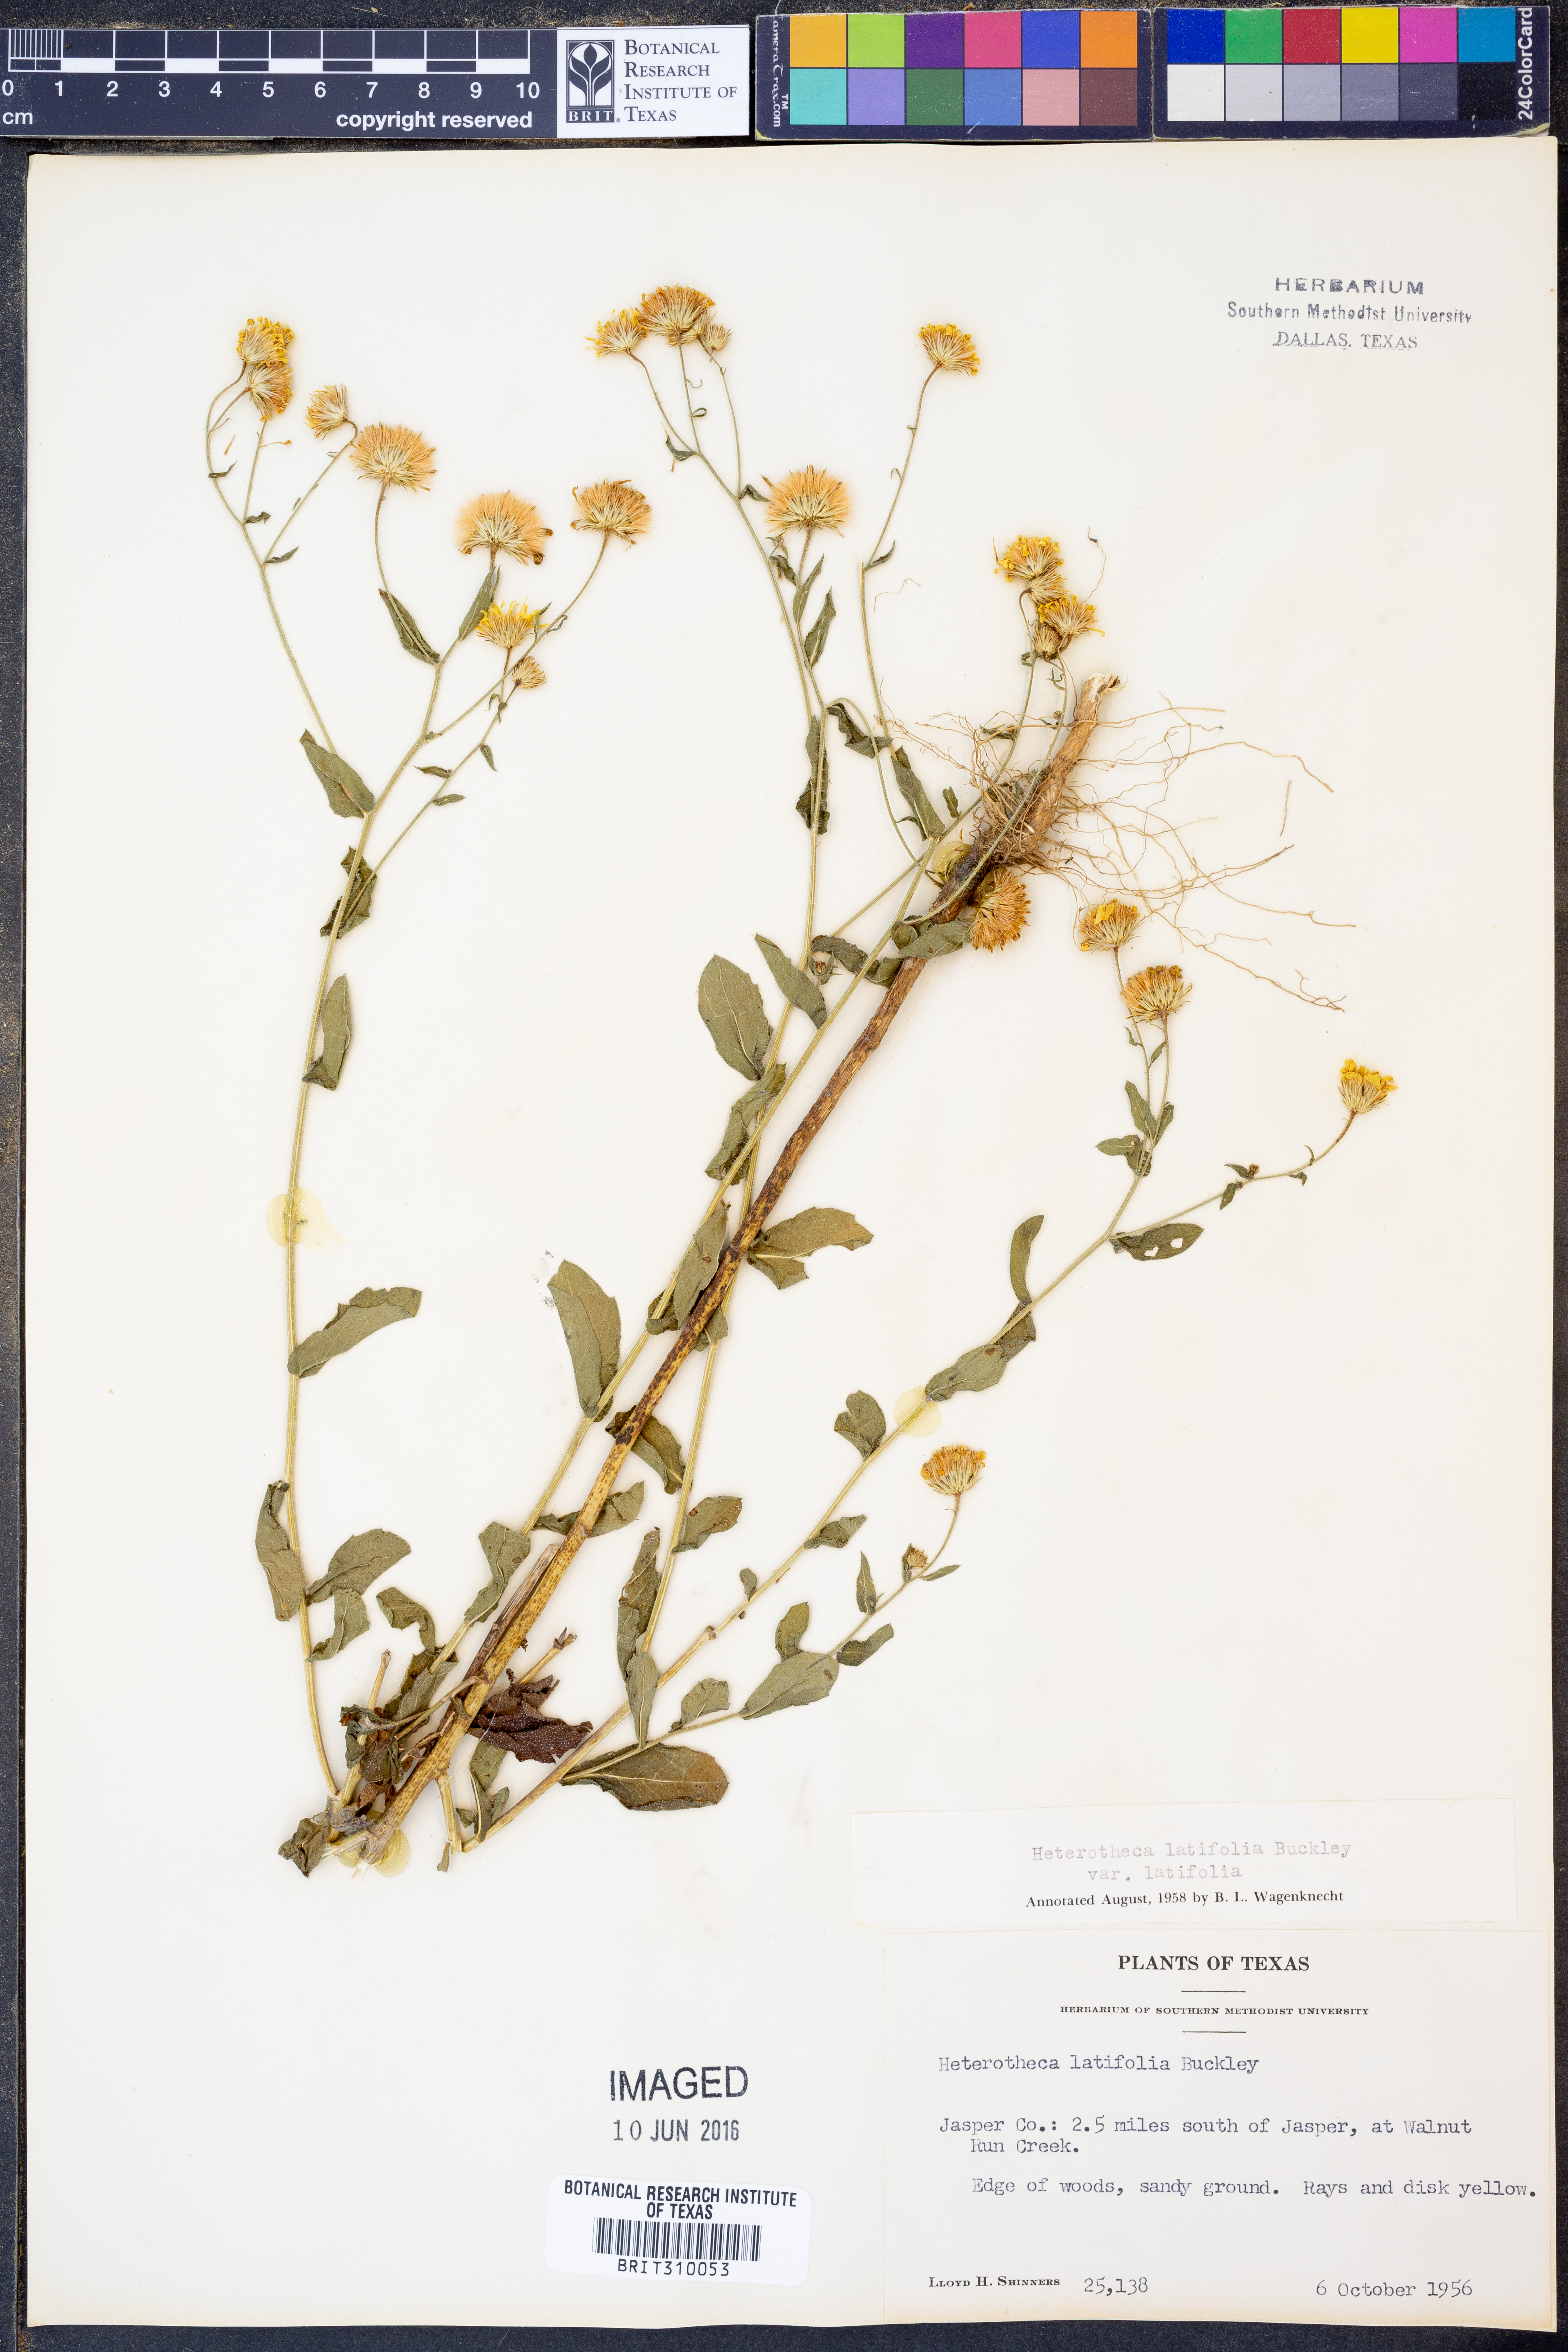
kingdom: Plantae
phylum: Tracheophyta
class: Magnoliopsida
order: Asterales
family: Asteraceae
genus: Heterotheca
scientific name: Heterotheca subaxillaris
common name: Camphorweed
